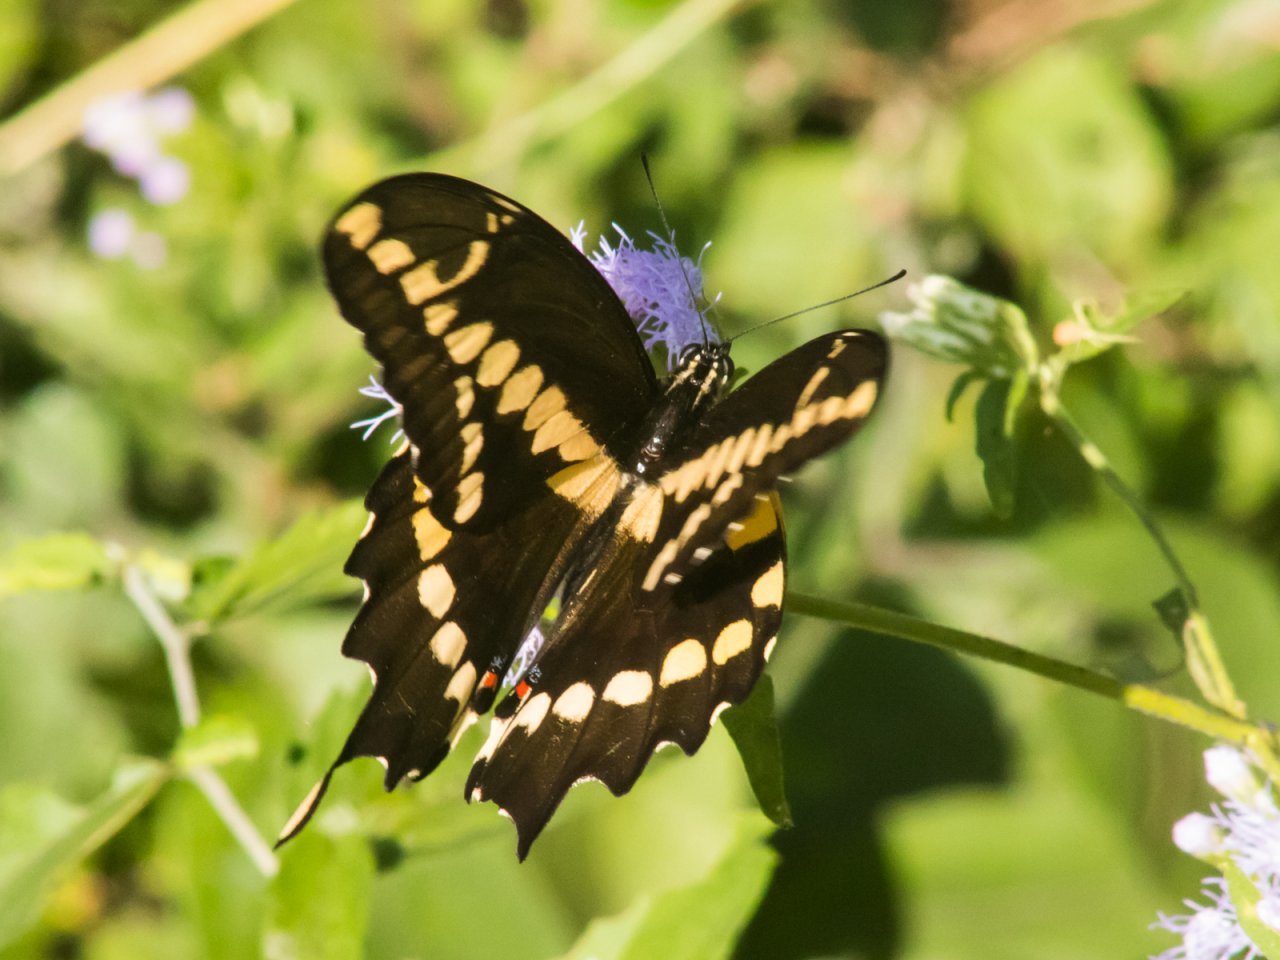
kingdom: Animalia
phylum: Arthropoda
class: Insecta
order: Lepidoptera
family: Papilionidae
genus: Papilio
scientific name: Papilio rumiko
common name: Western Giant Swallowtail
